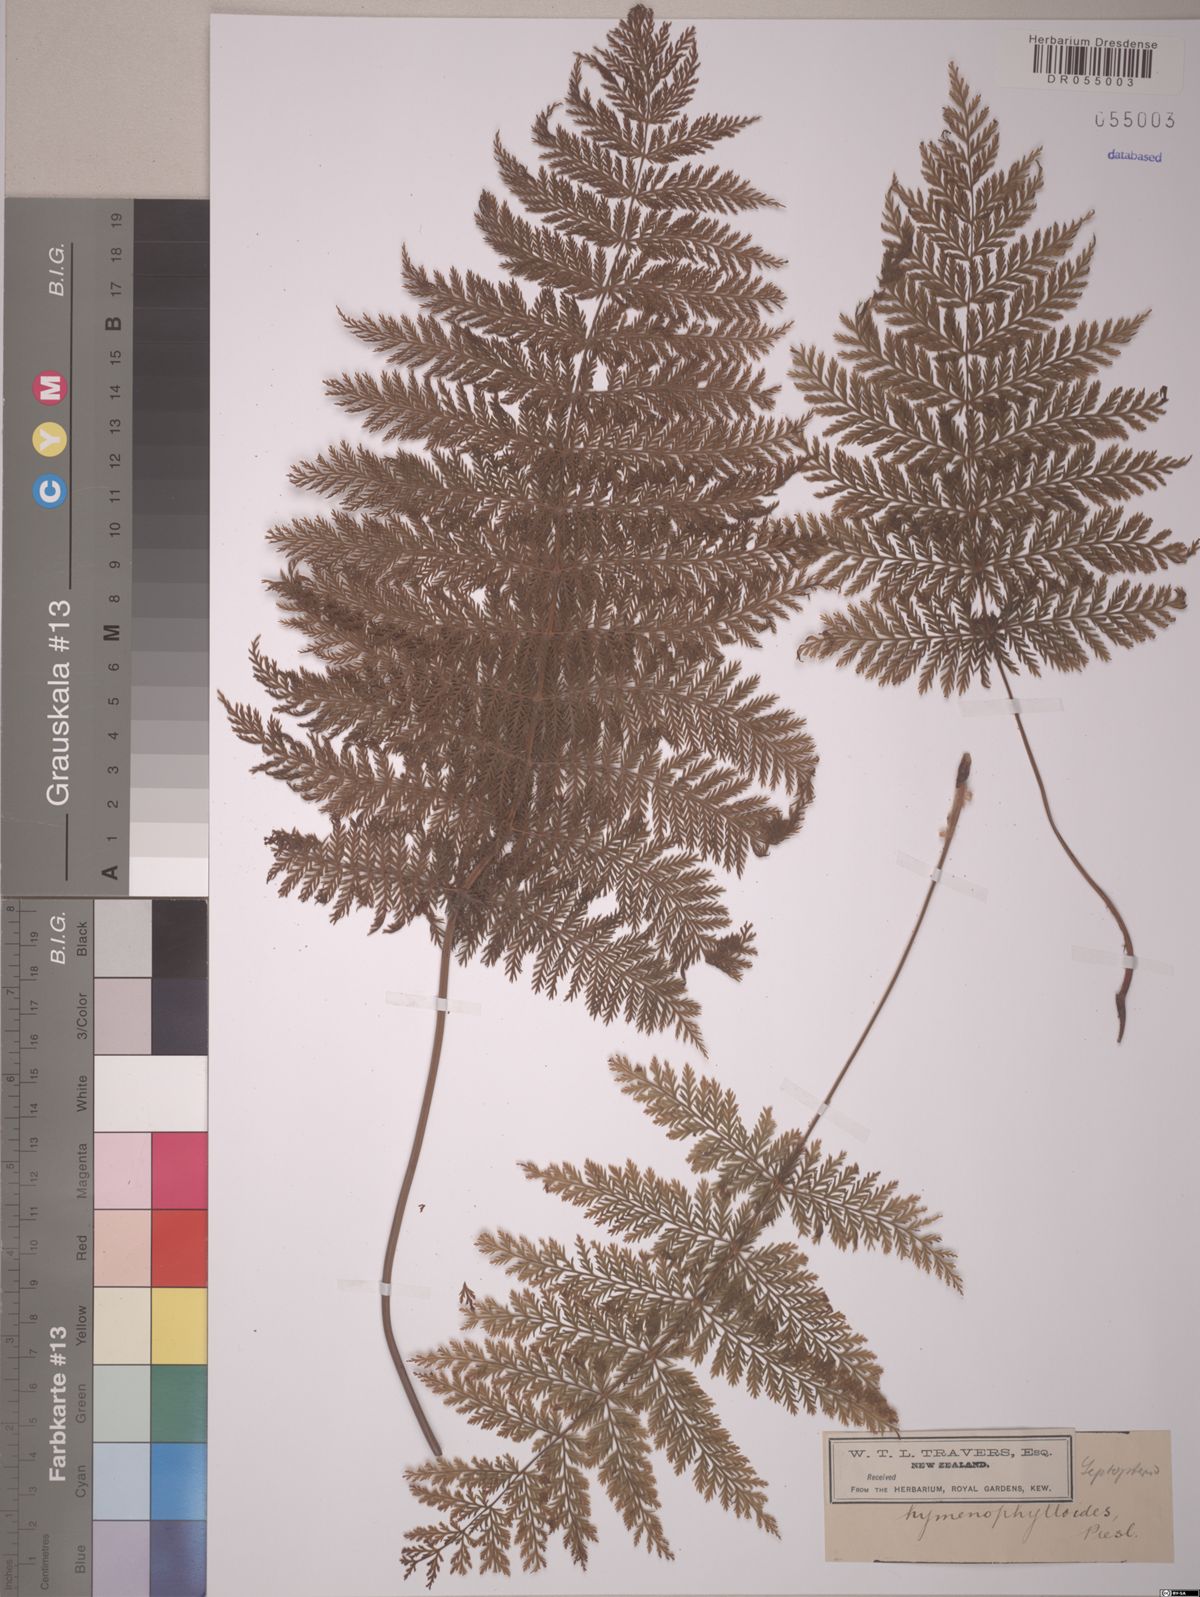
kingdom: Plantae
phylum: Tracheophyta
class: Polypodiopsida
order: Osmundales
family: Osmundaceae
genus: Leptopteris
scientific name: Leptopteris hymenophylloides
